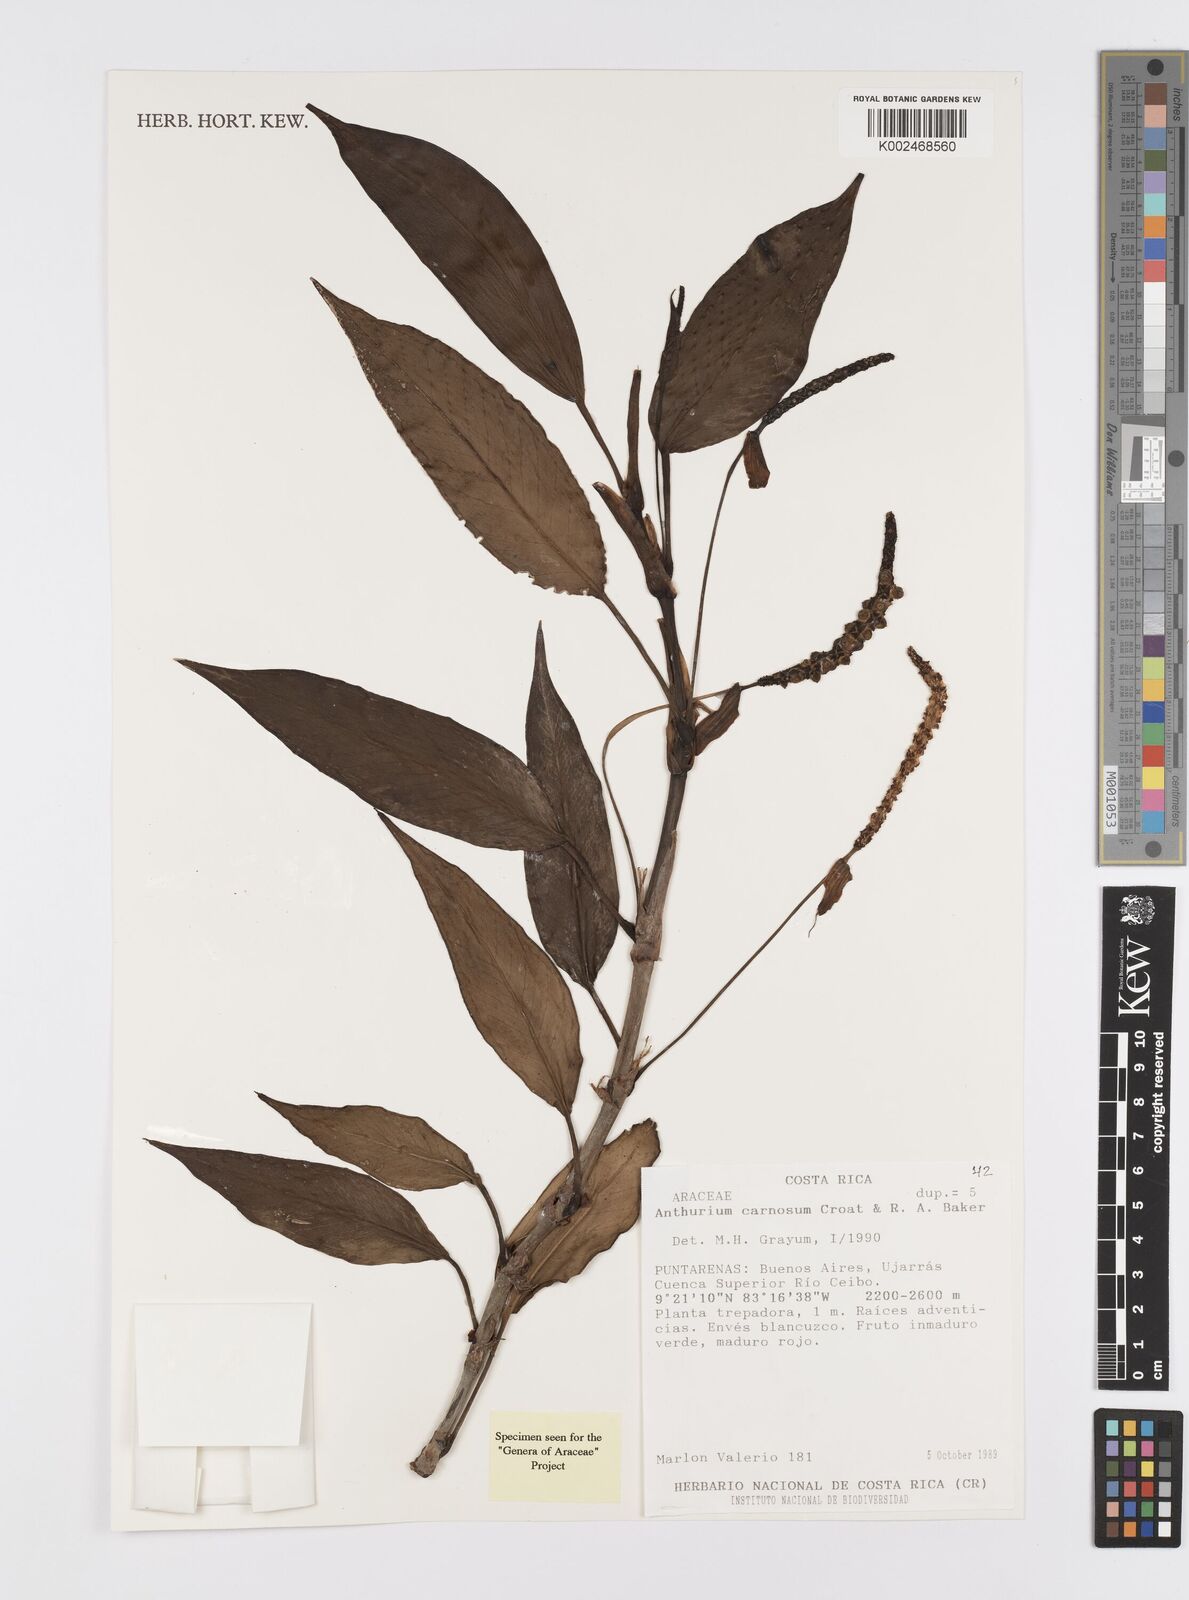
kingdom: Plantae
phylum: Tracheophyta
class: Liliopsida
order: Alismatales
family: Araceae
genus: Anthurium
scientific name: Anthurium carnosum
